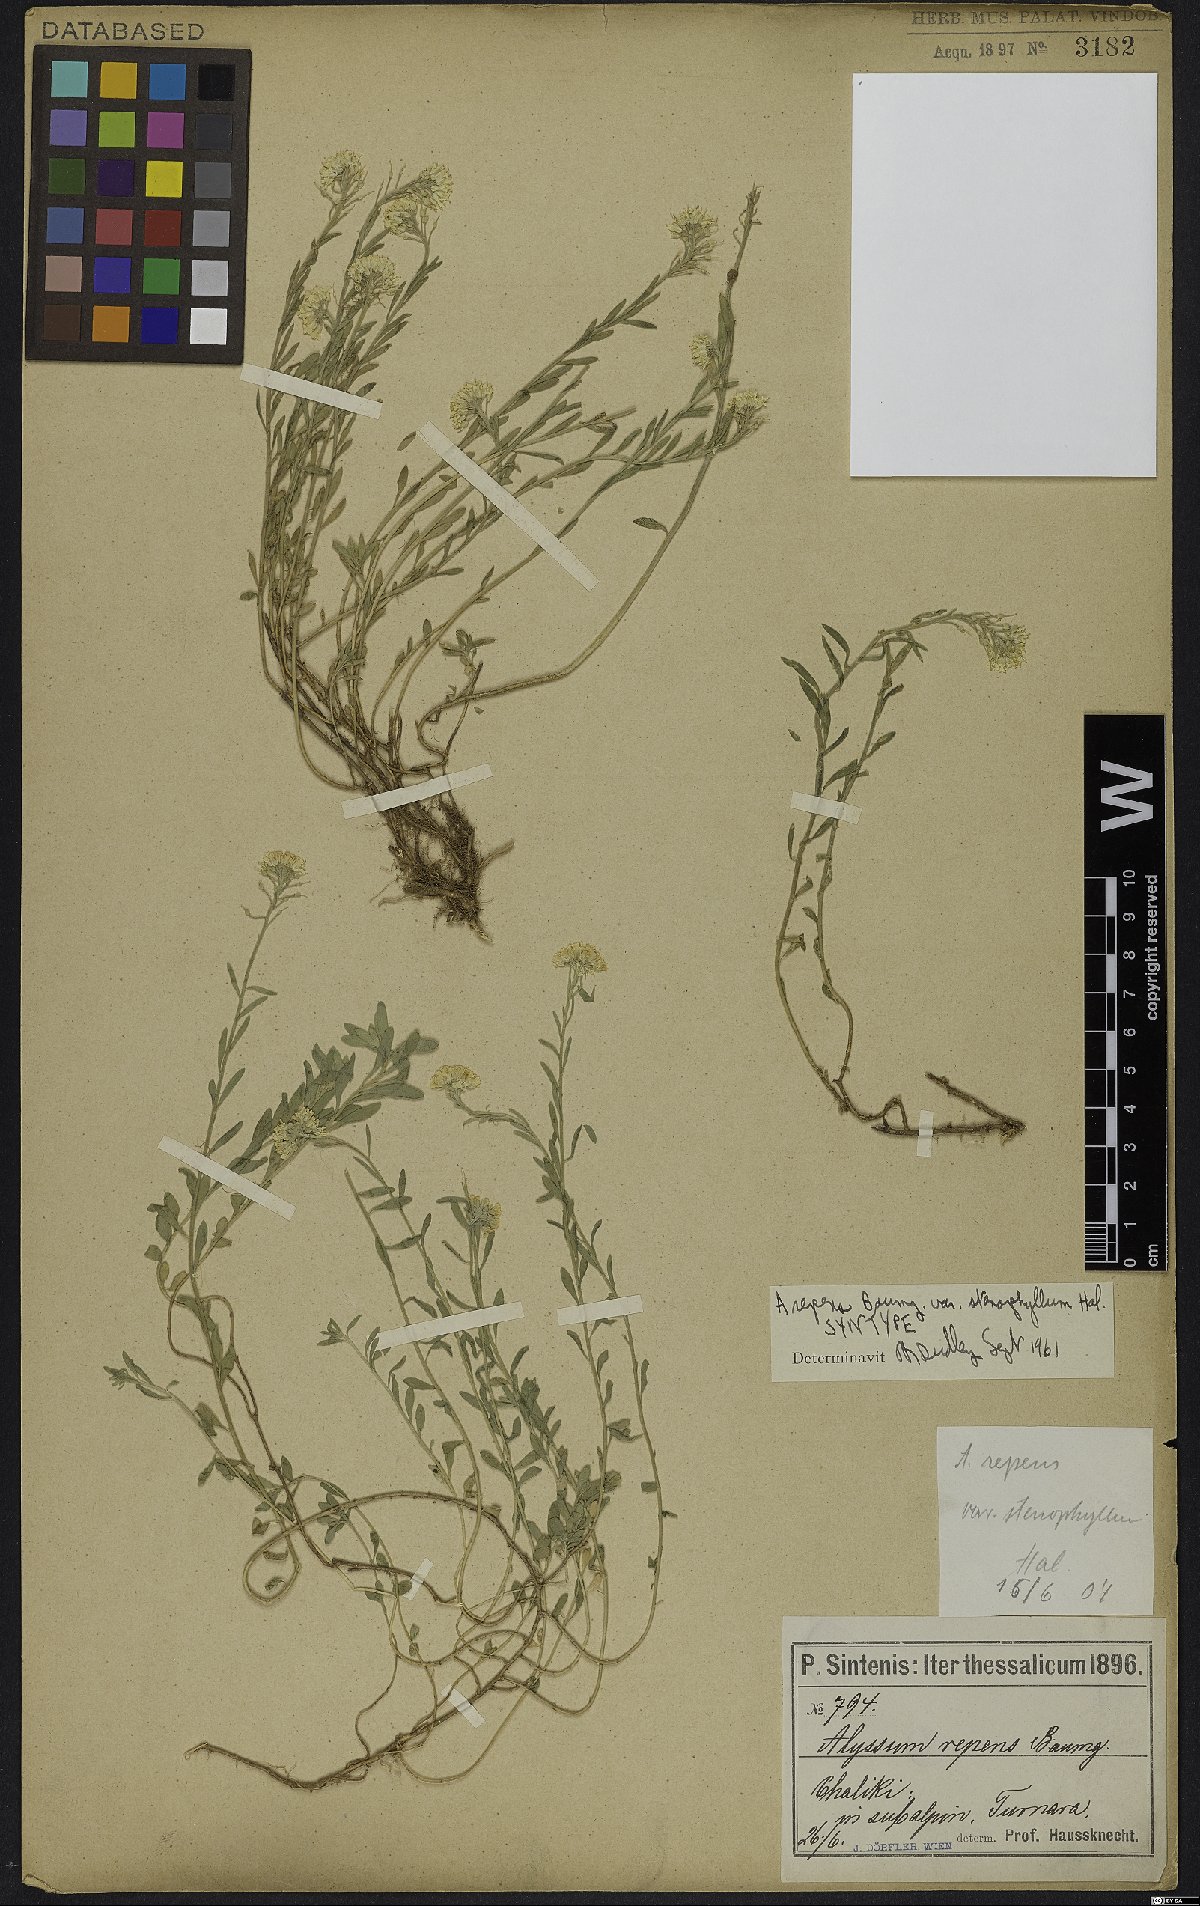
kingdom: Plantae
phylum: Tracheophyta
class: Magnoliopsida
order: Brassicales
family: Brassicaceae
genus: Alyssum
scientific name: Alyssum trichostachyum
